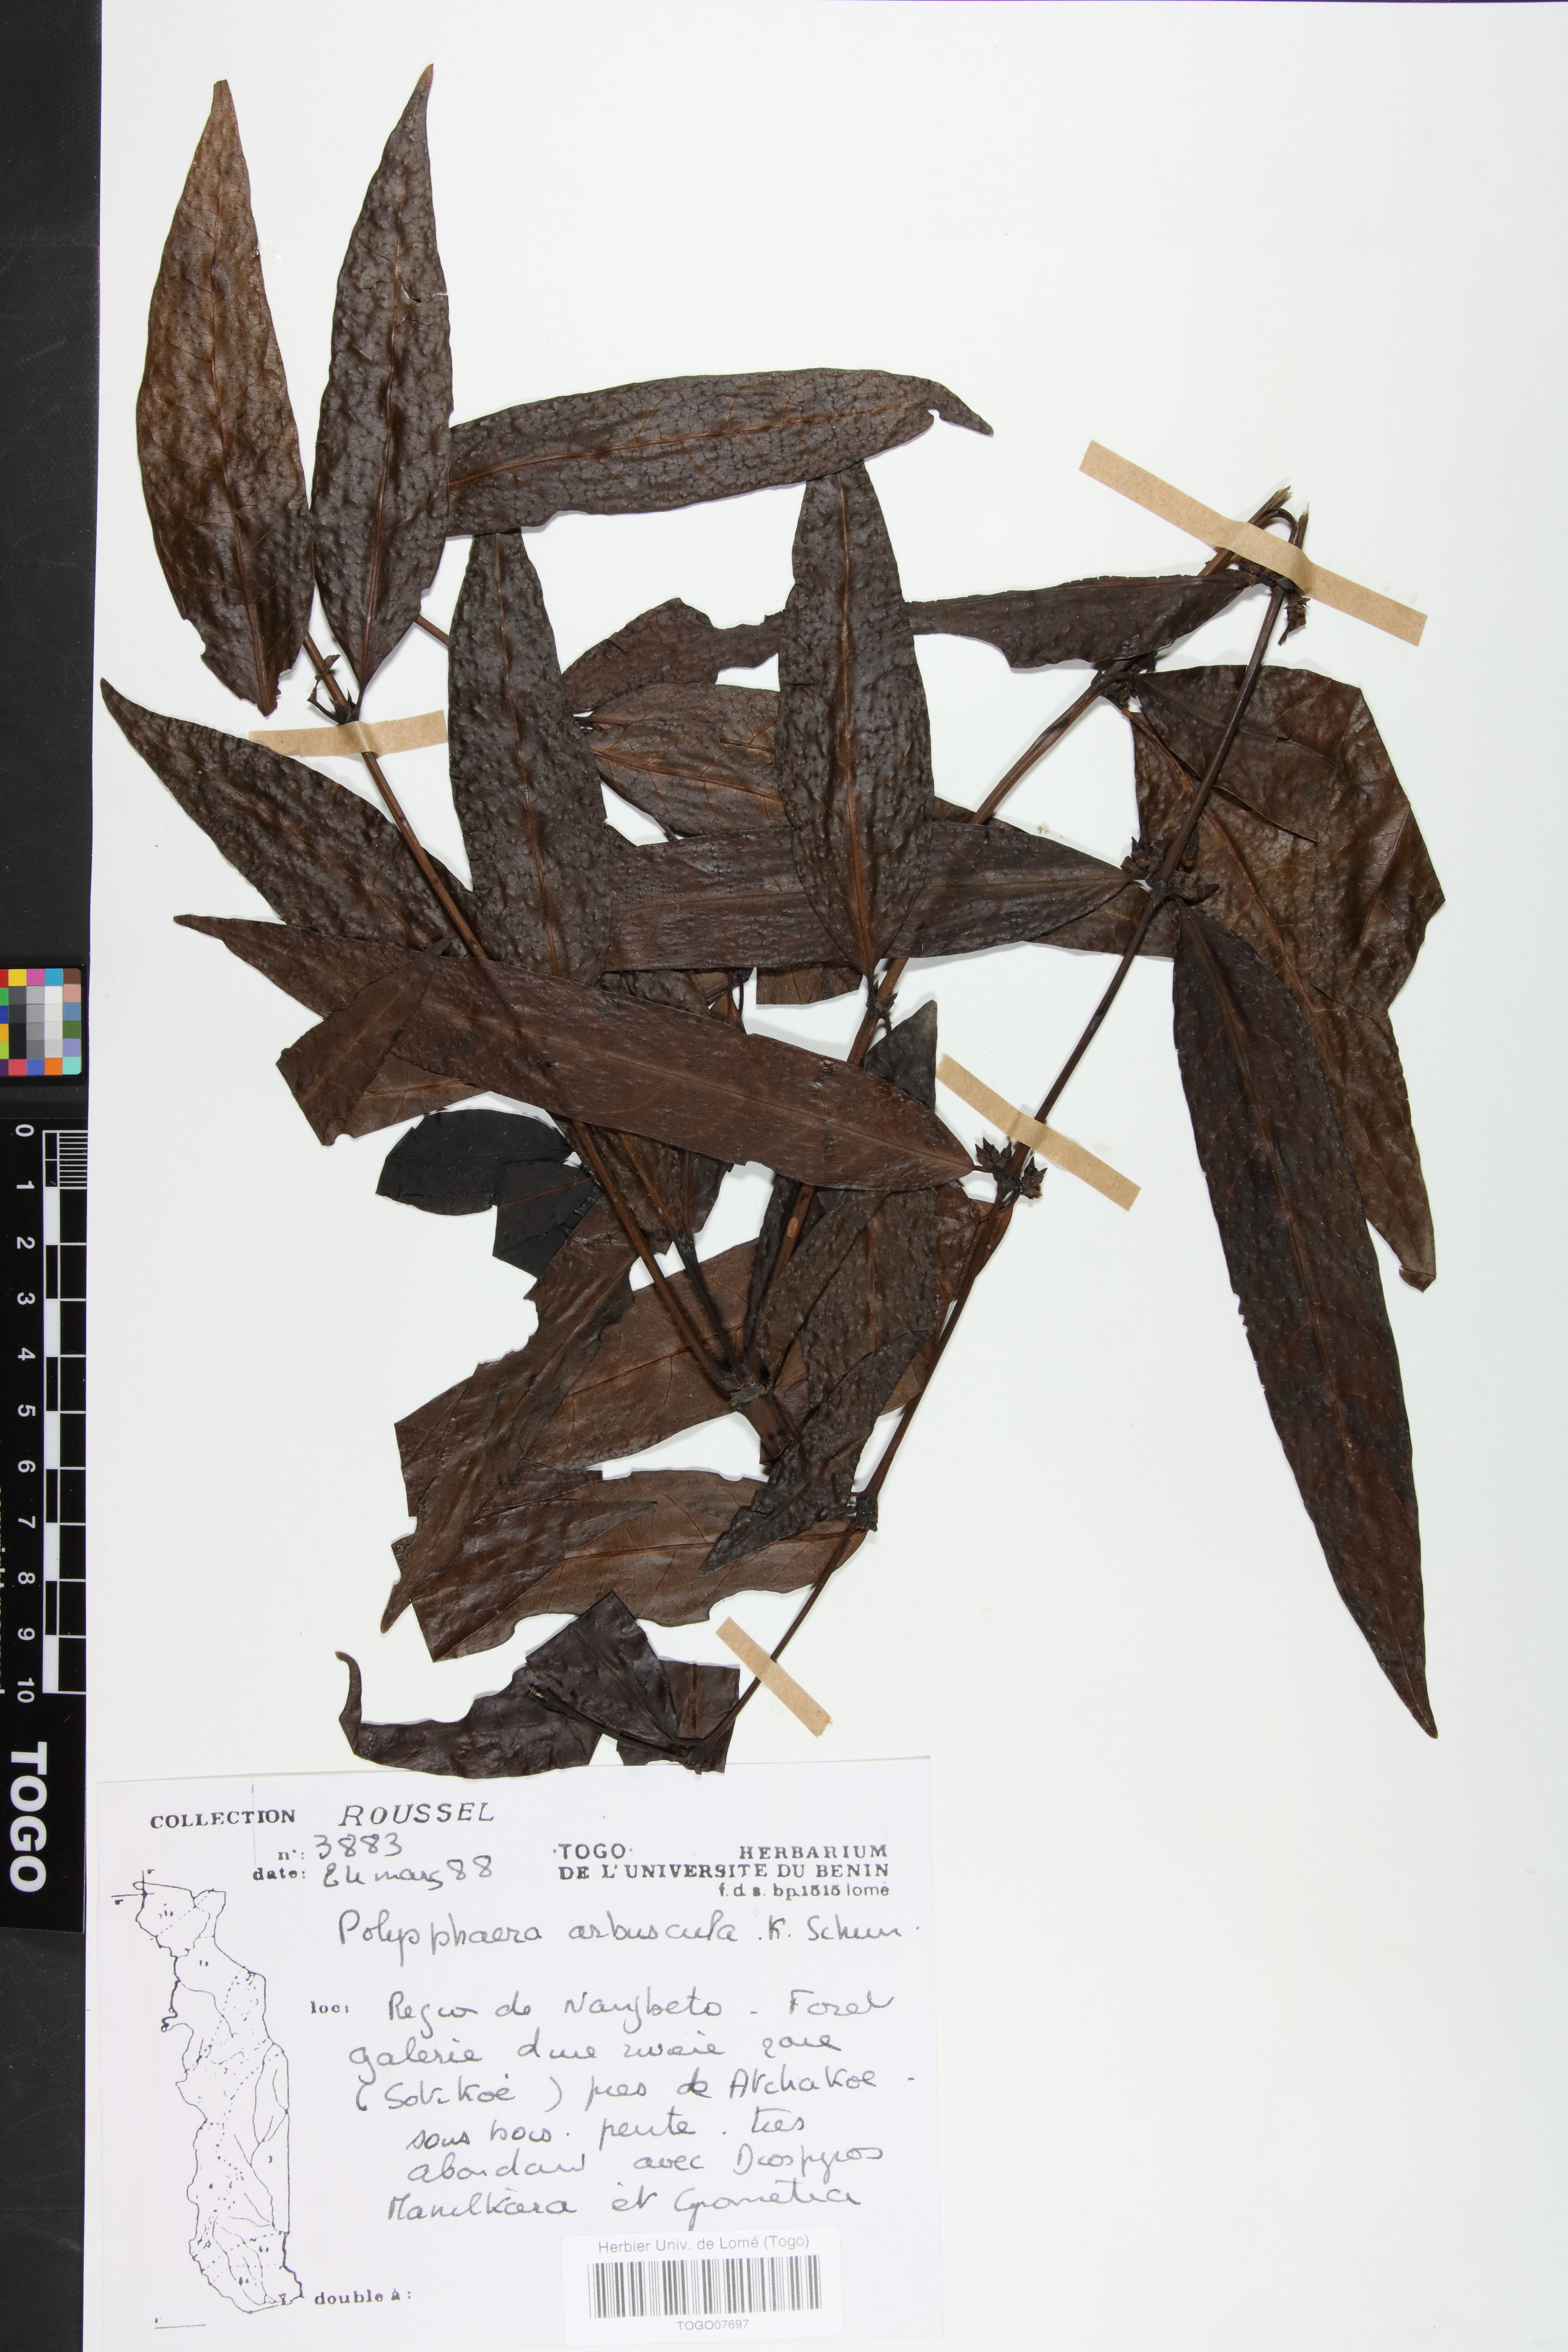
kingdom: Plantae
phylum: Tracheophyta
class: Magnoliopsida
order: Gentianales
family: Rubiaceae
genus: Polysphaeria
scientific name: Polysphaeria arbuscula
